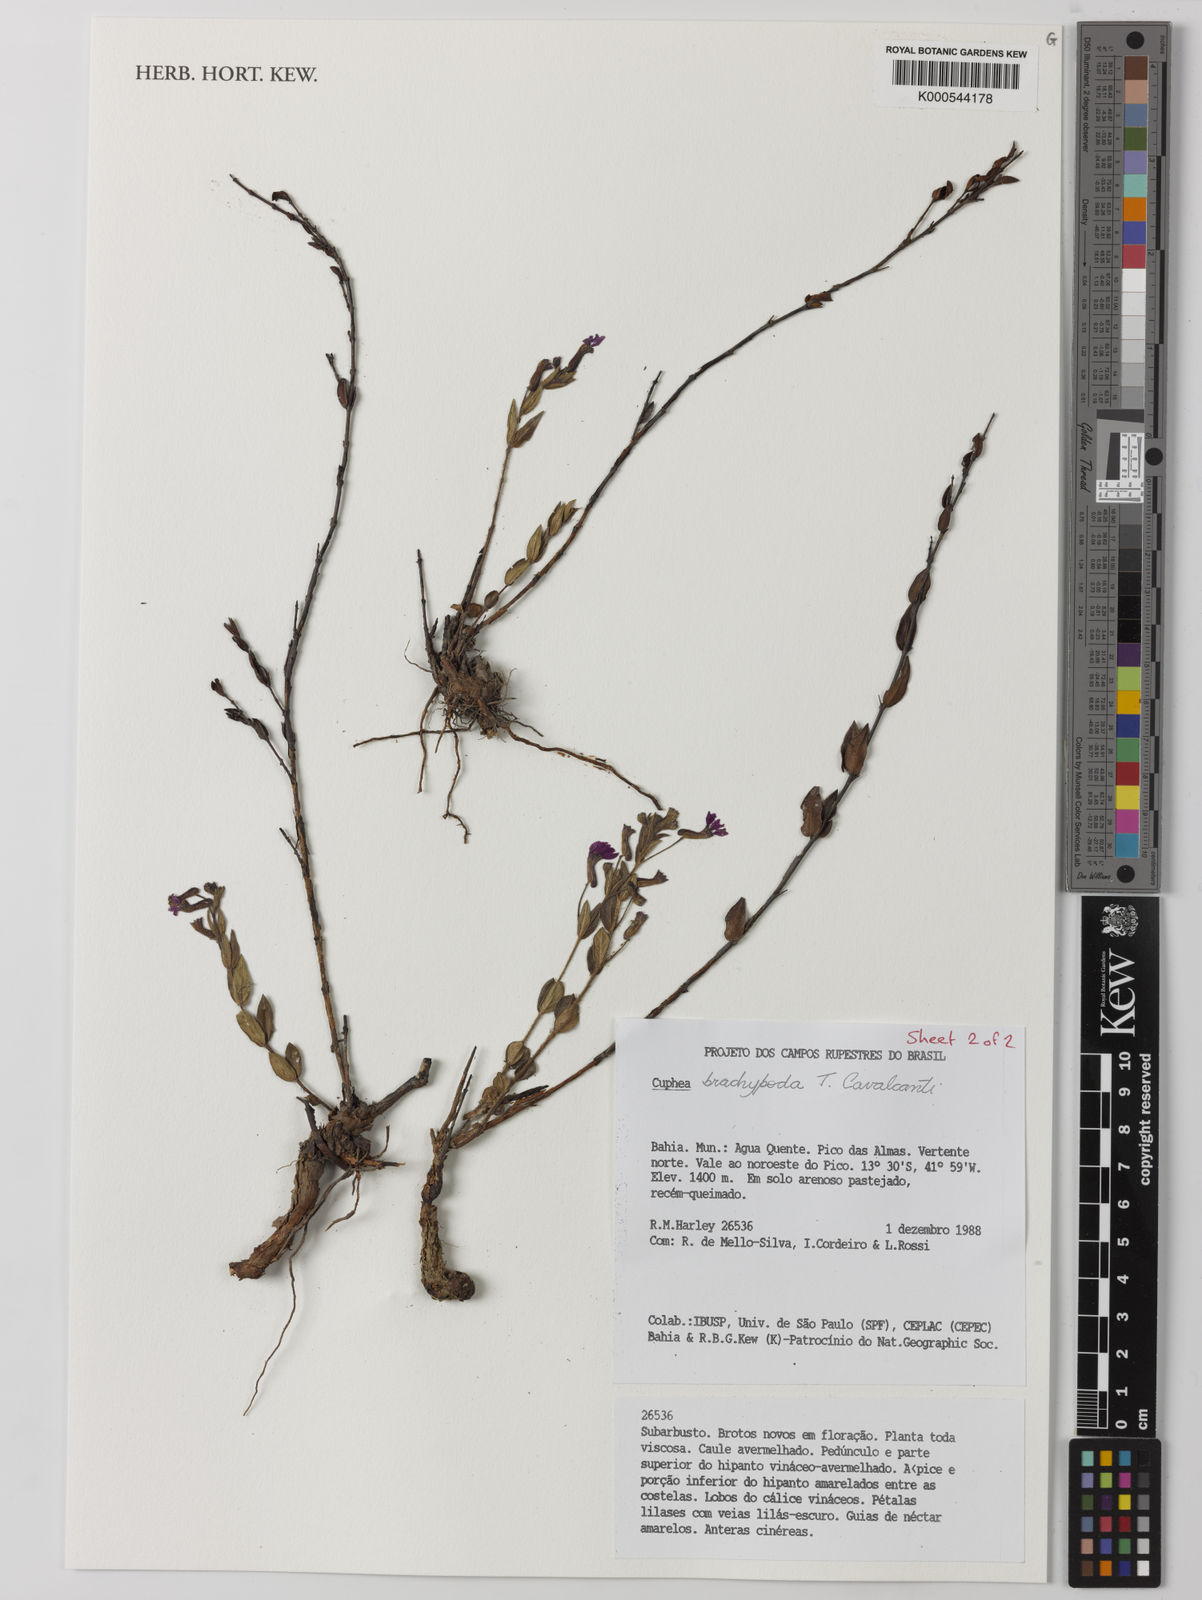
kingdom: Plantae
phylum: Tracheophyta
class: Magnoliopsida
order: Myrtales
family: Lythraceae
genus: Cuphea
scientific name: Cuphea brachypoda
